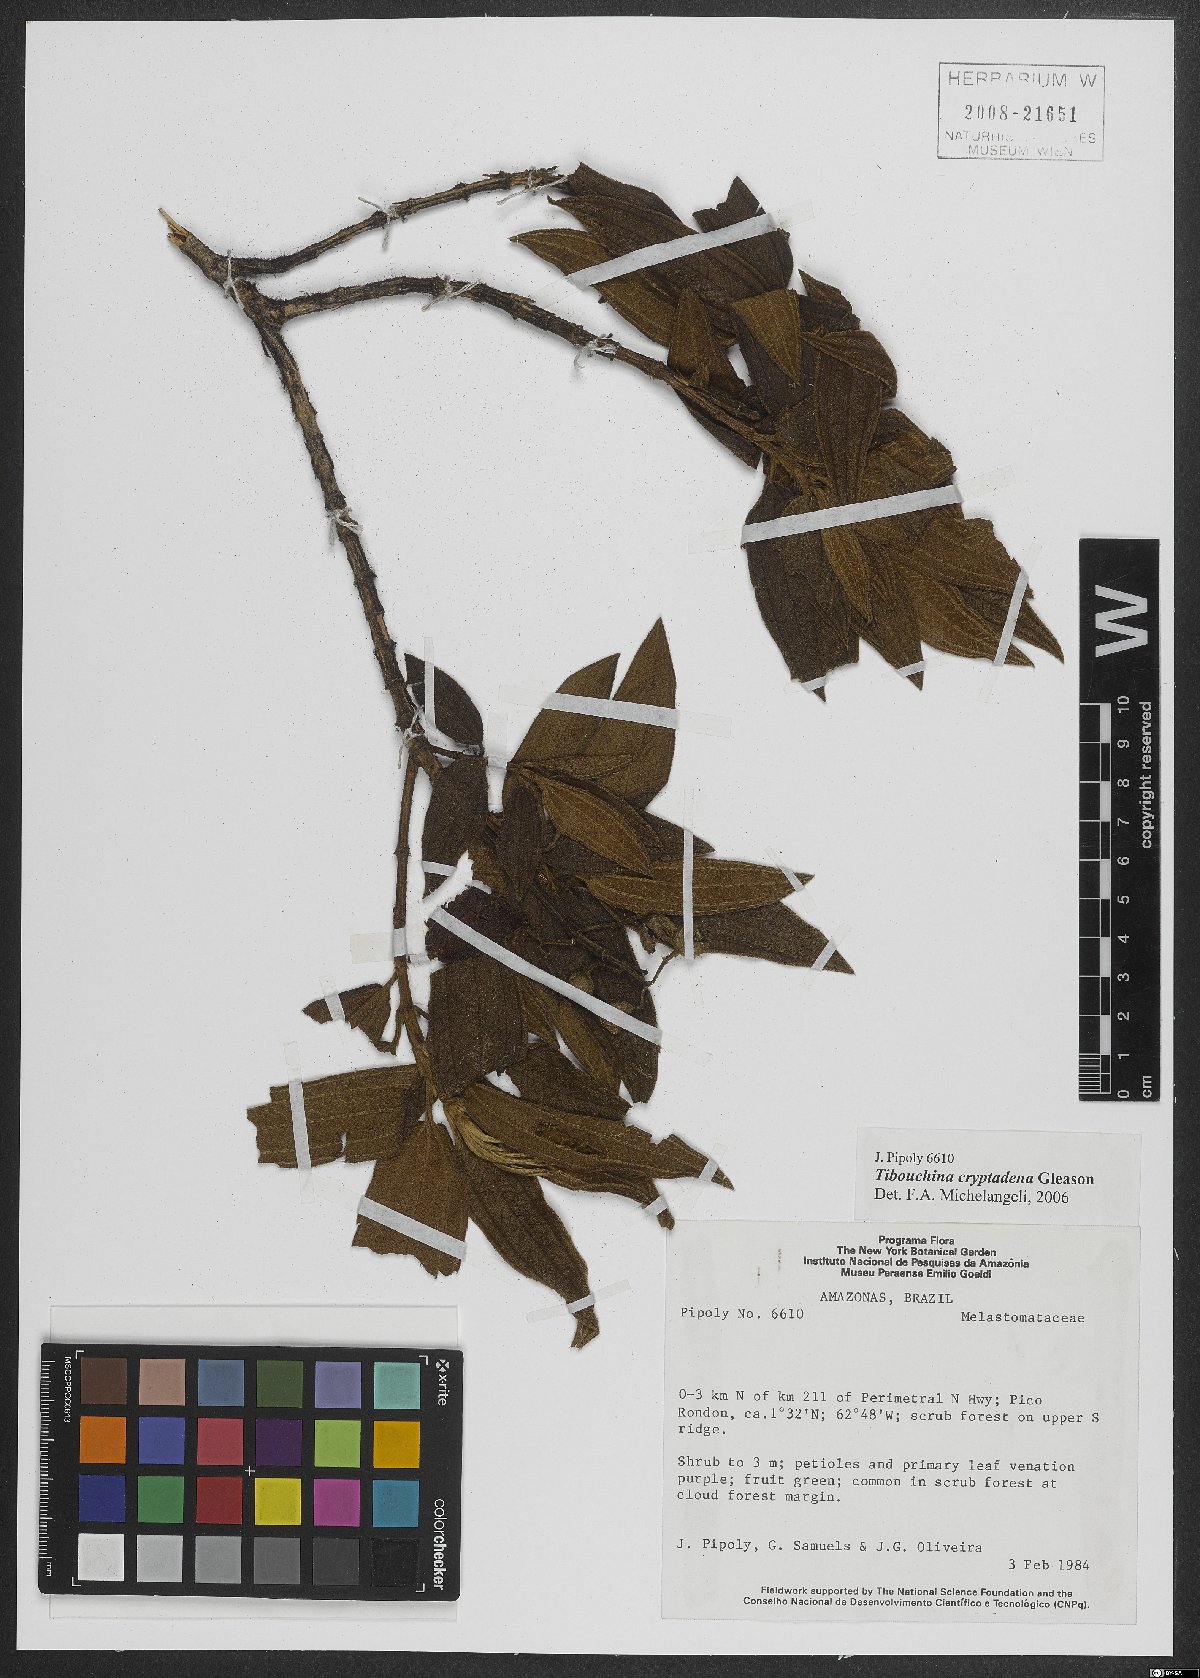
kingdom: Plantae
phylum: Tracheophyta
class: Magnoliopsida
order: Myrtales
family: Melastomataceae
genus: Pleroma
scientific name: Pleroma cryptadenum
